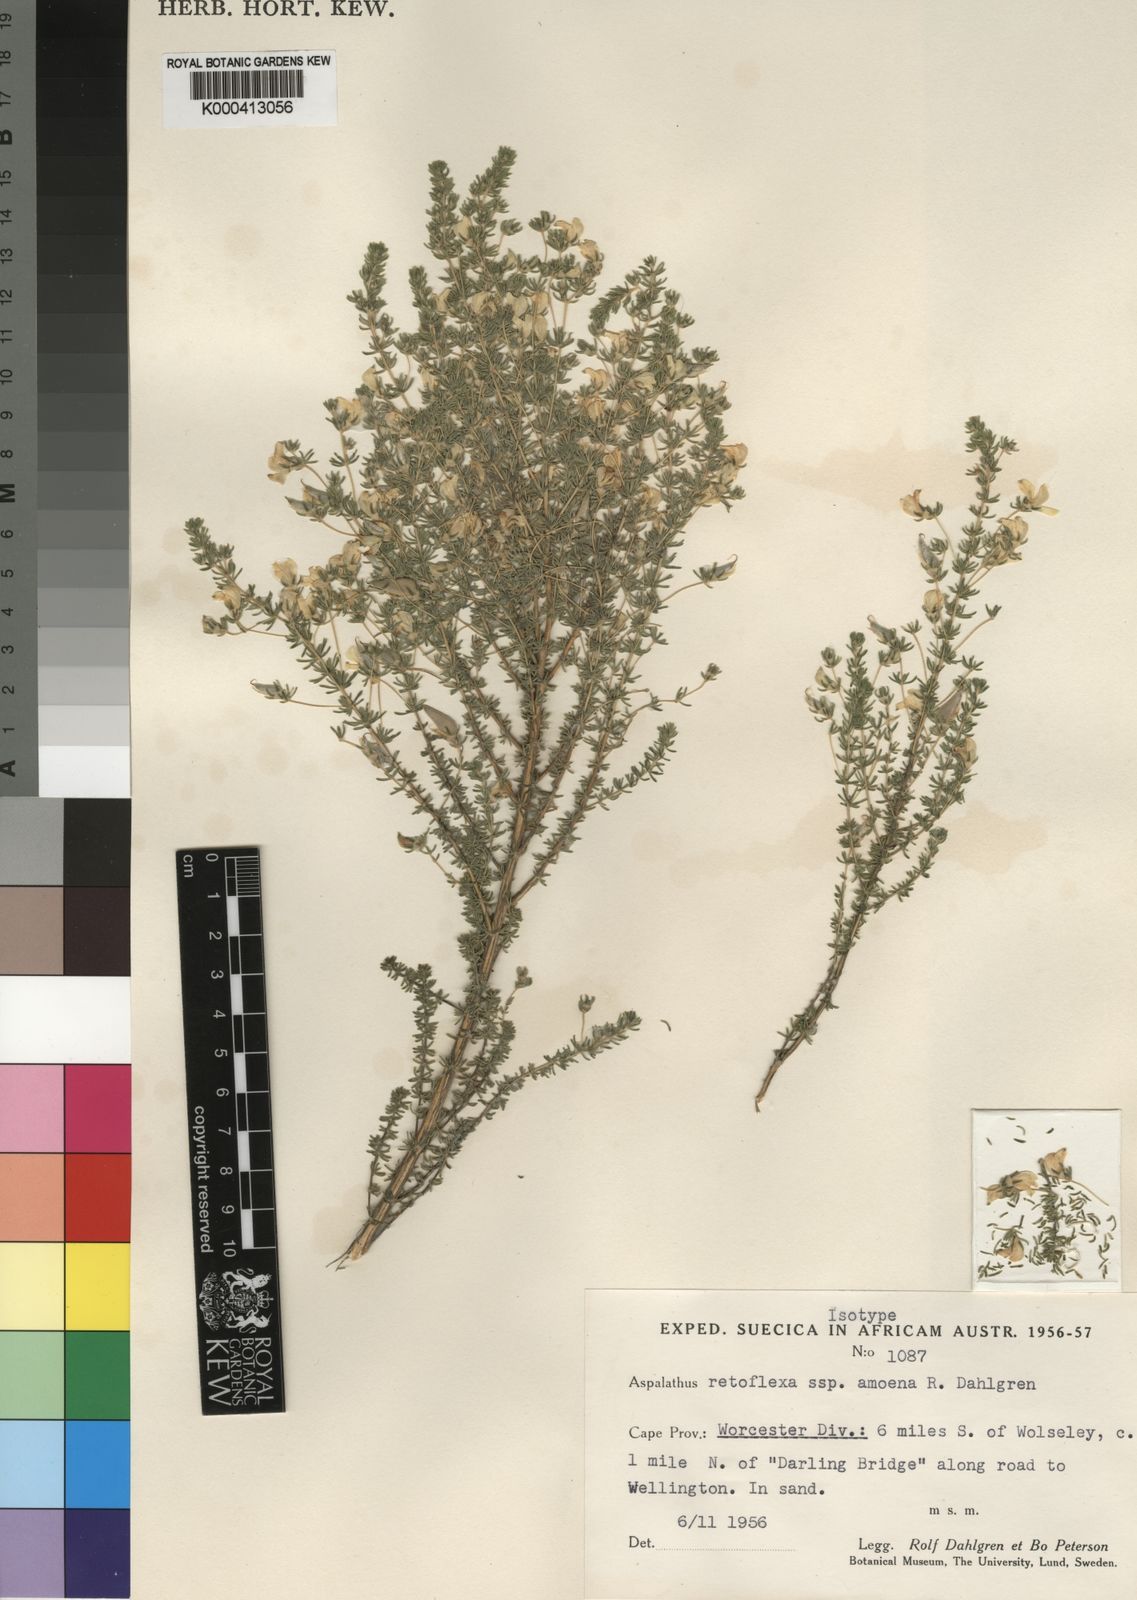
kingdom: Plantae
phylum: Tracheophyta
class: Magnoliopsida
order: Fabales
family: Fabaceae
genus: Aspalathus
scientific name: Aspalathus amoena
